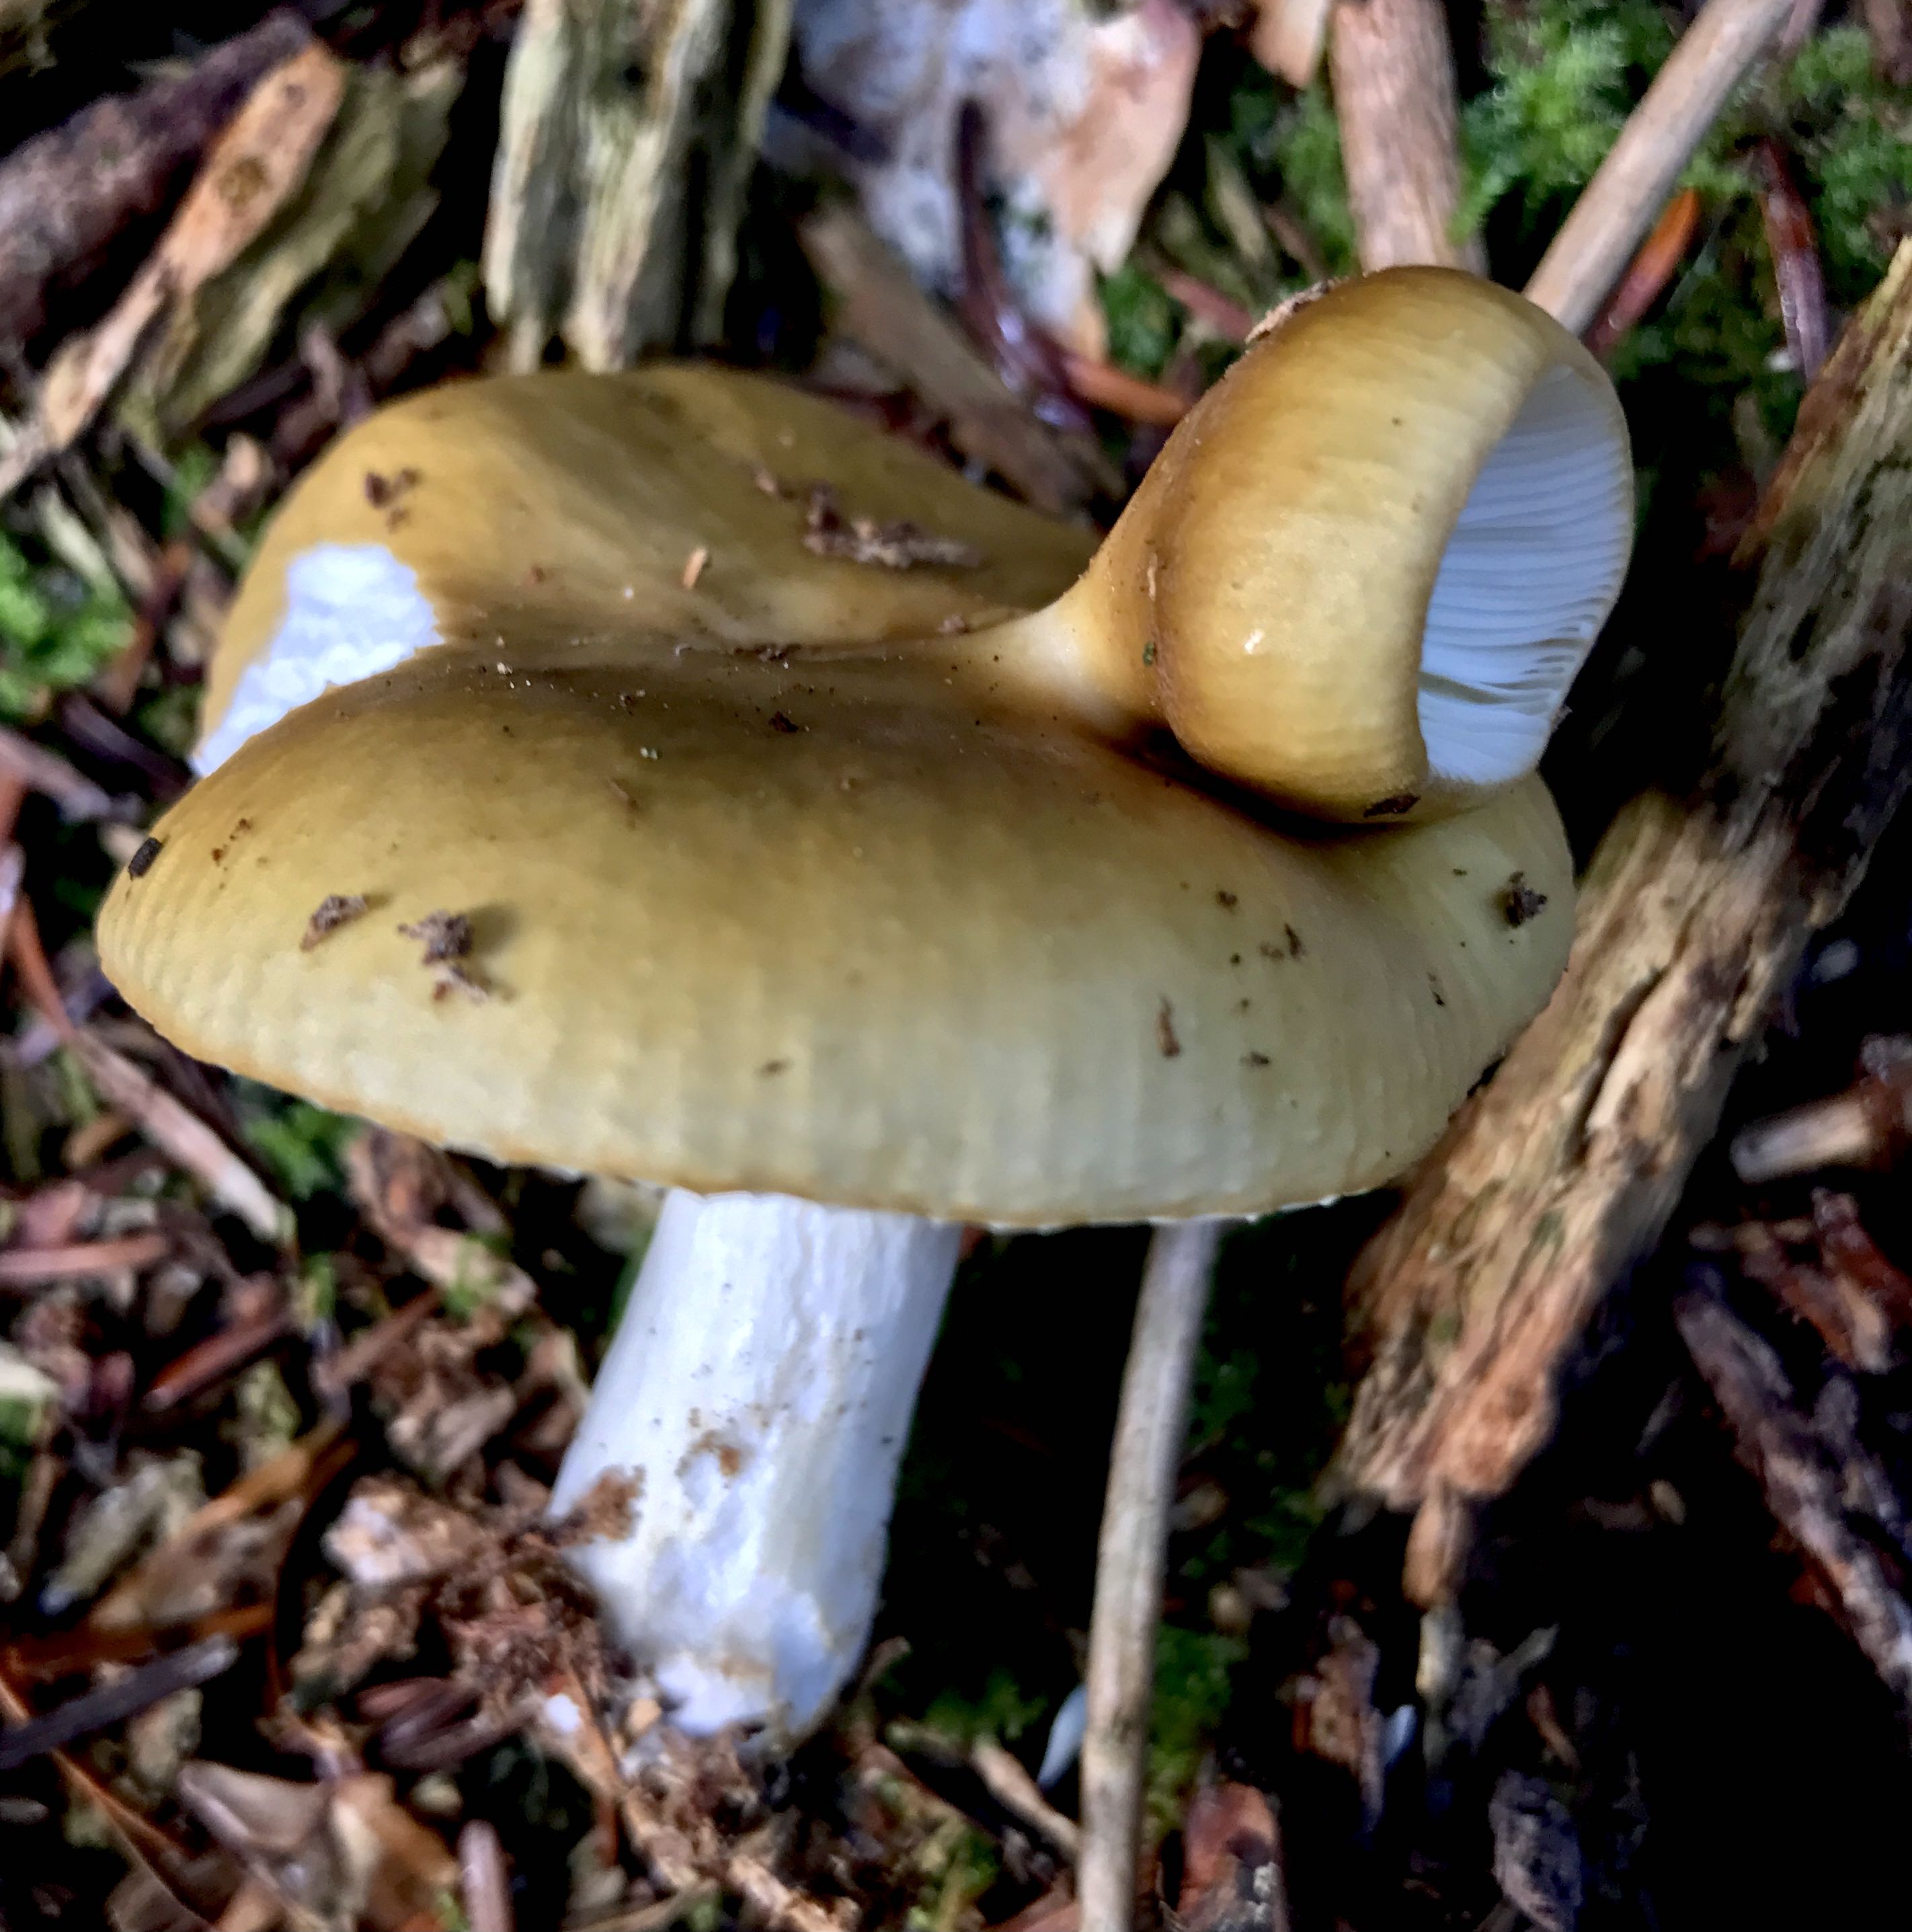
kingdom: Fungi
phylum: Basidiomycota
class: Agaricomycetes
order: Russulales
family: Russulaceae
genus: Russula
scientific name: Russula ochroleuca
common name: okkergul skørhat
